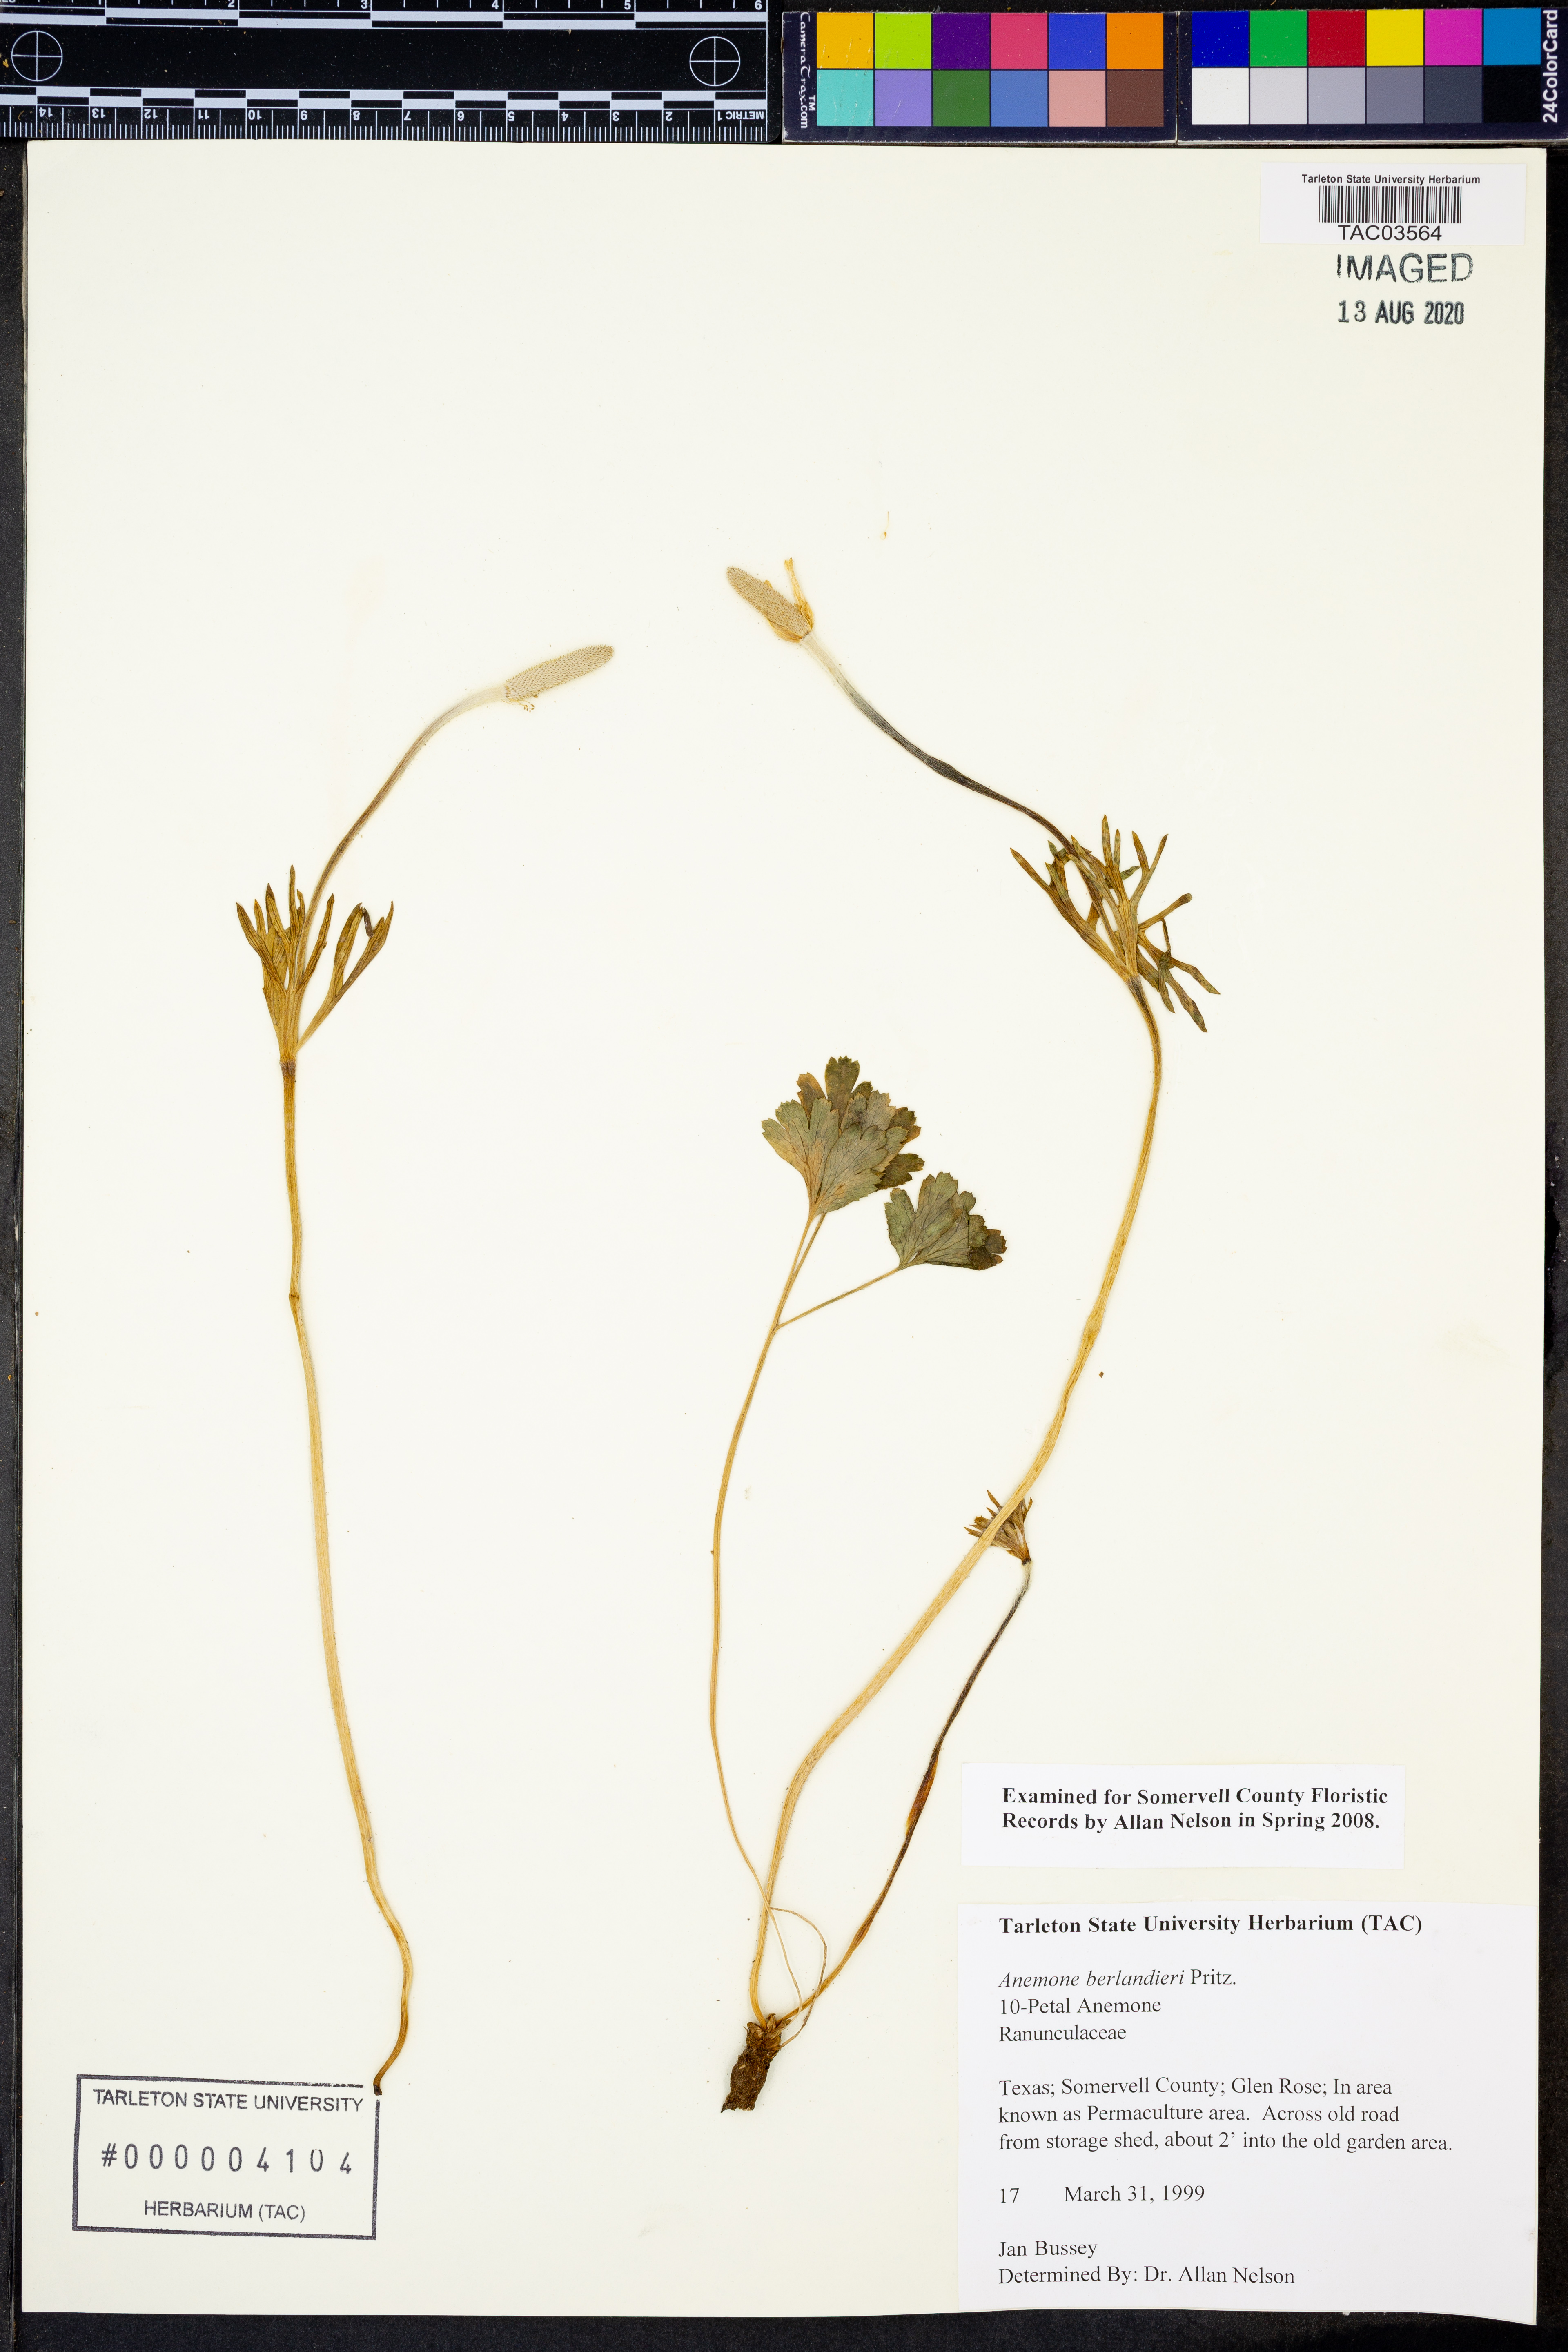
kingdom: Plantae
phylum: Tracheophyta
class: Magnoliopsida
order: Ranunculales
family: Ranunculaceae
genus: Anemone
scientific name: Anemone berlandieri
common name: Ten-petal anemone
